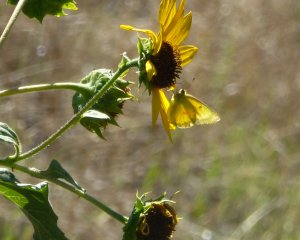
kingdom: Animalia
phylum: Arthropoda
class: Insecta
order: Lepidoptera
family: Pieridae
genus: Colias
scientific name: Colias eurytheme
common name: Orange Sulphur
